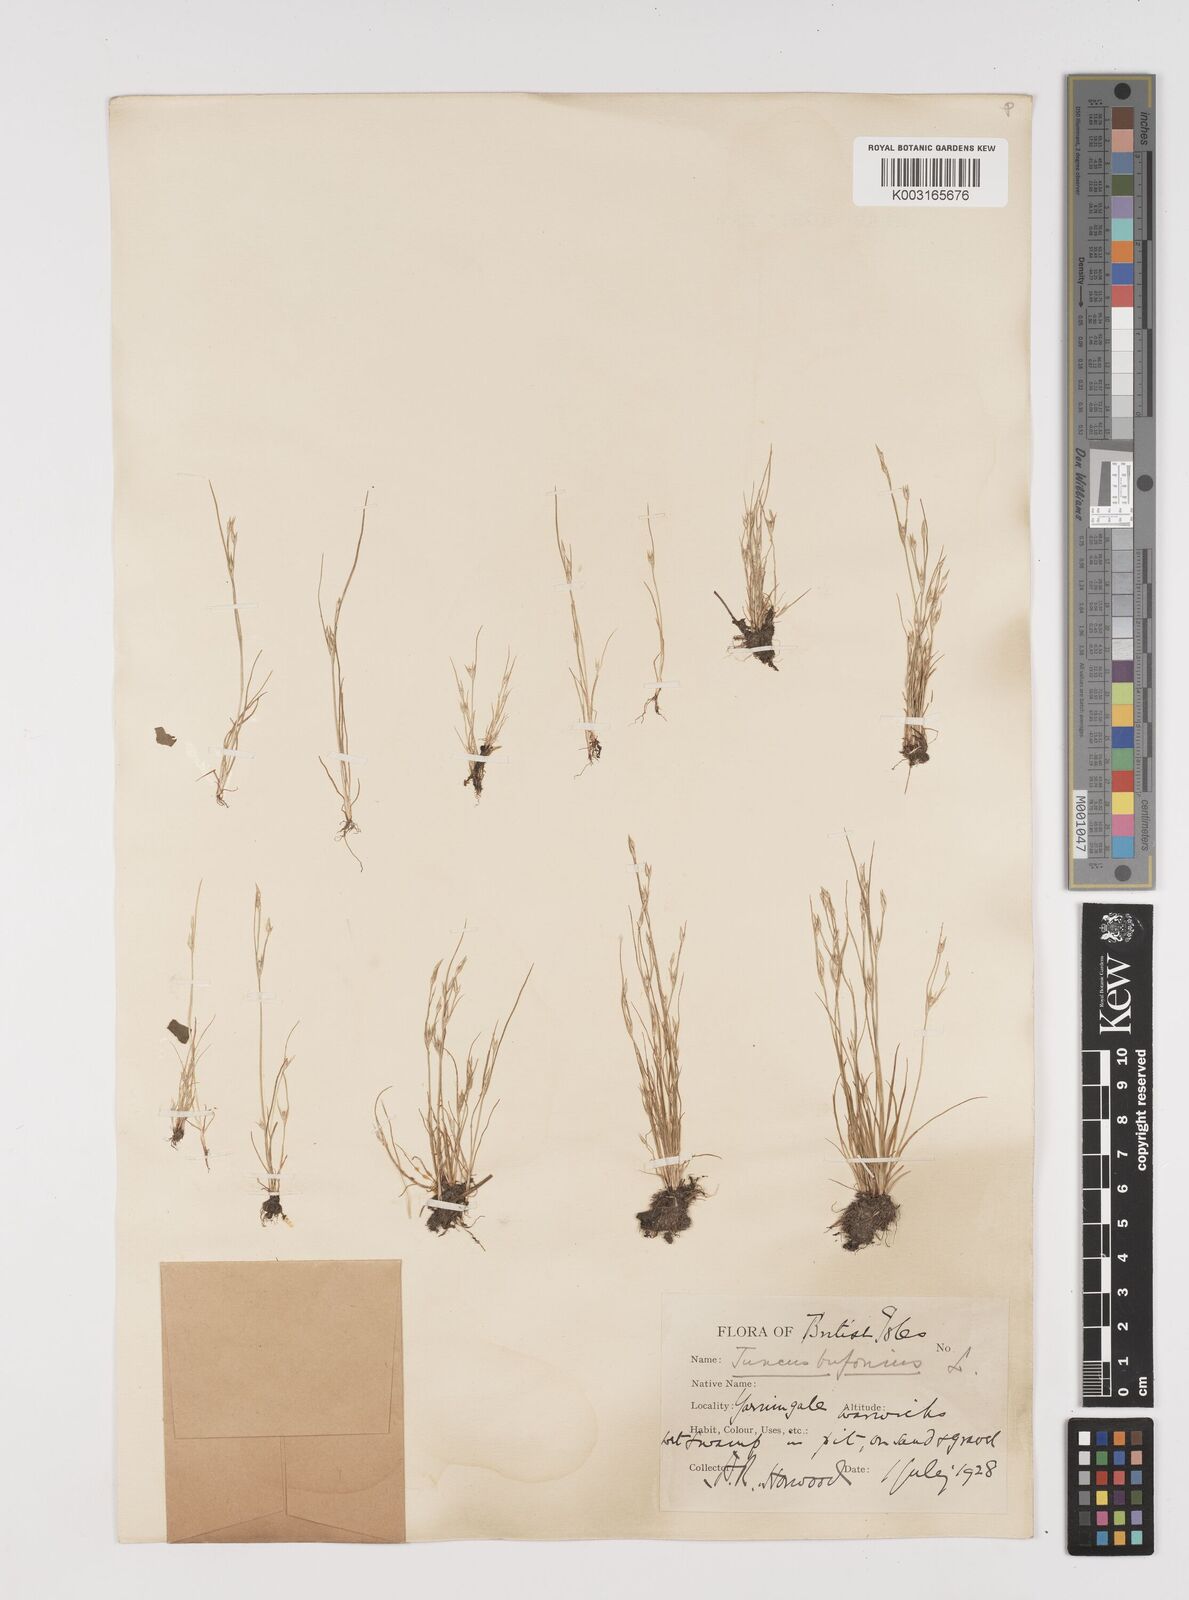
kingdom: Plantae
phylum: Tracheophyta
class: Liliopsida
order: Poales
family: Juncaceae
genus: Juncus
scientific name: Juncus bufonius
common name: Toad rush
